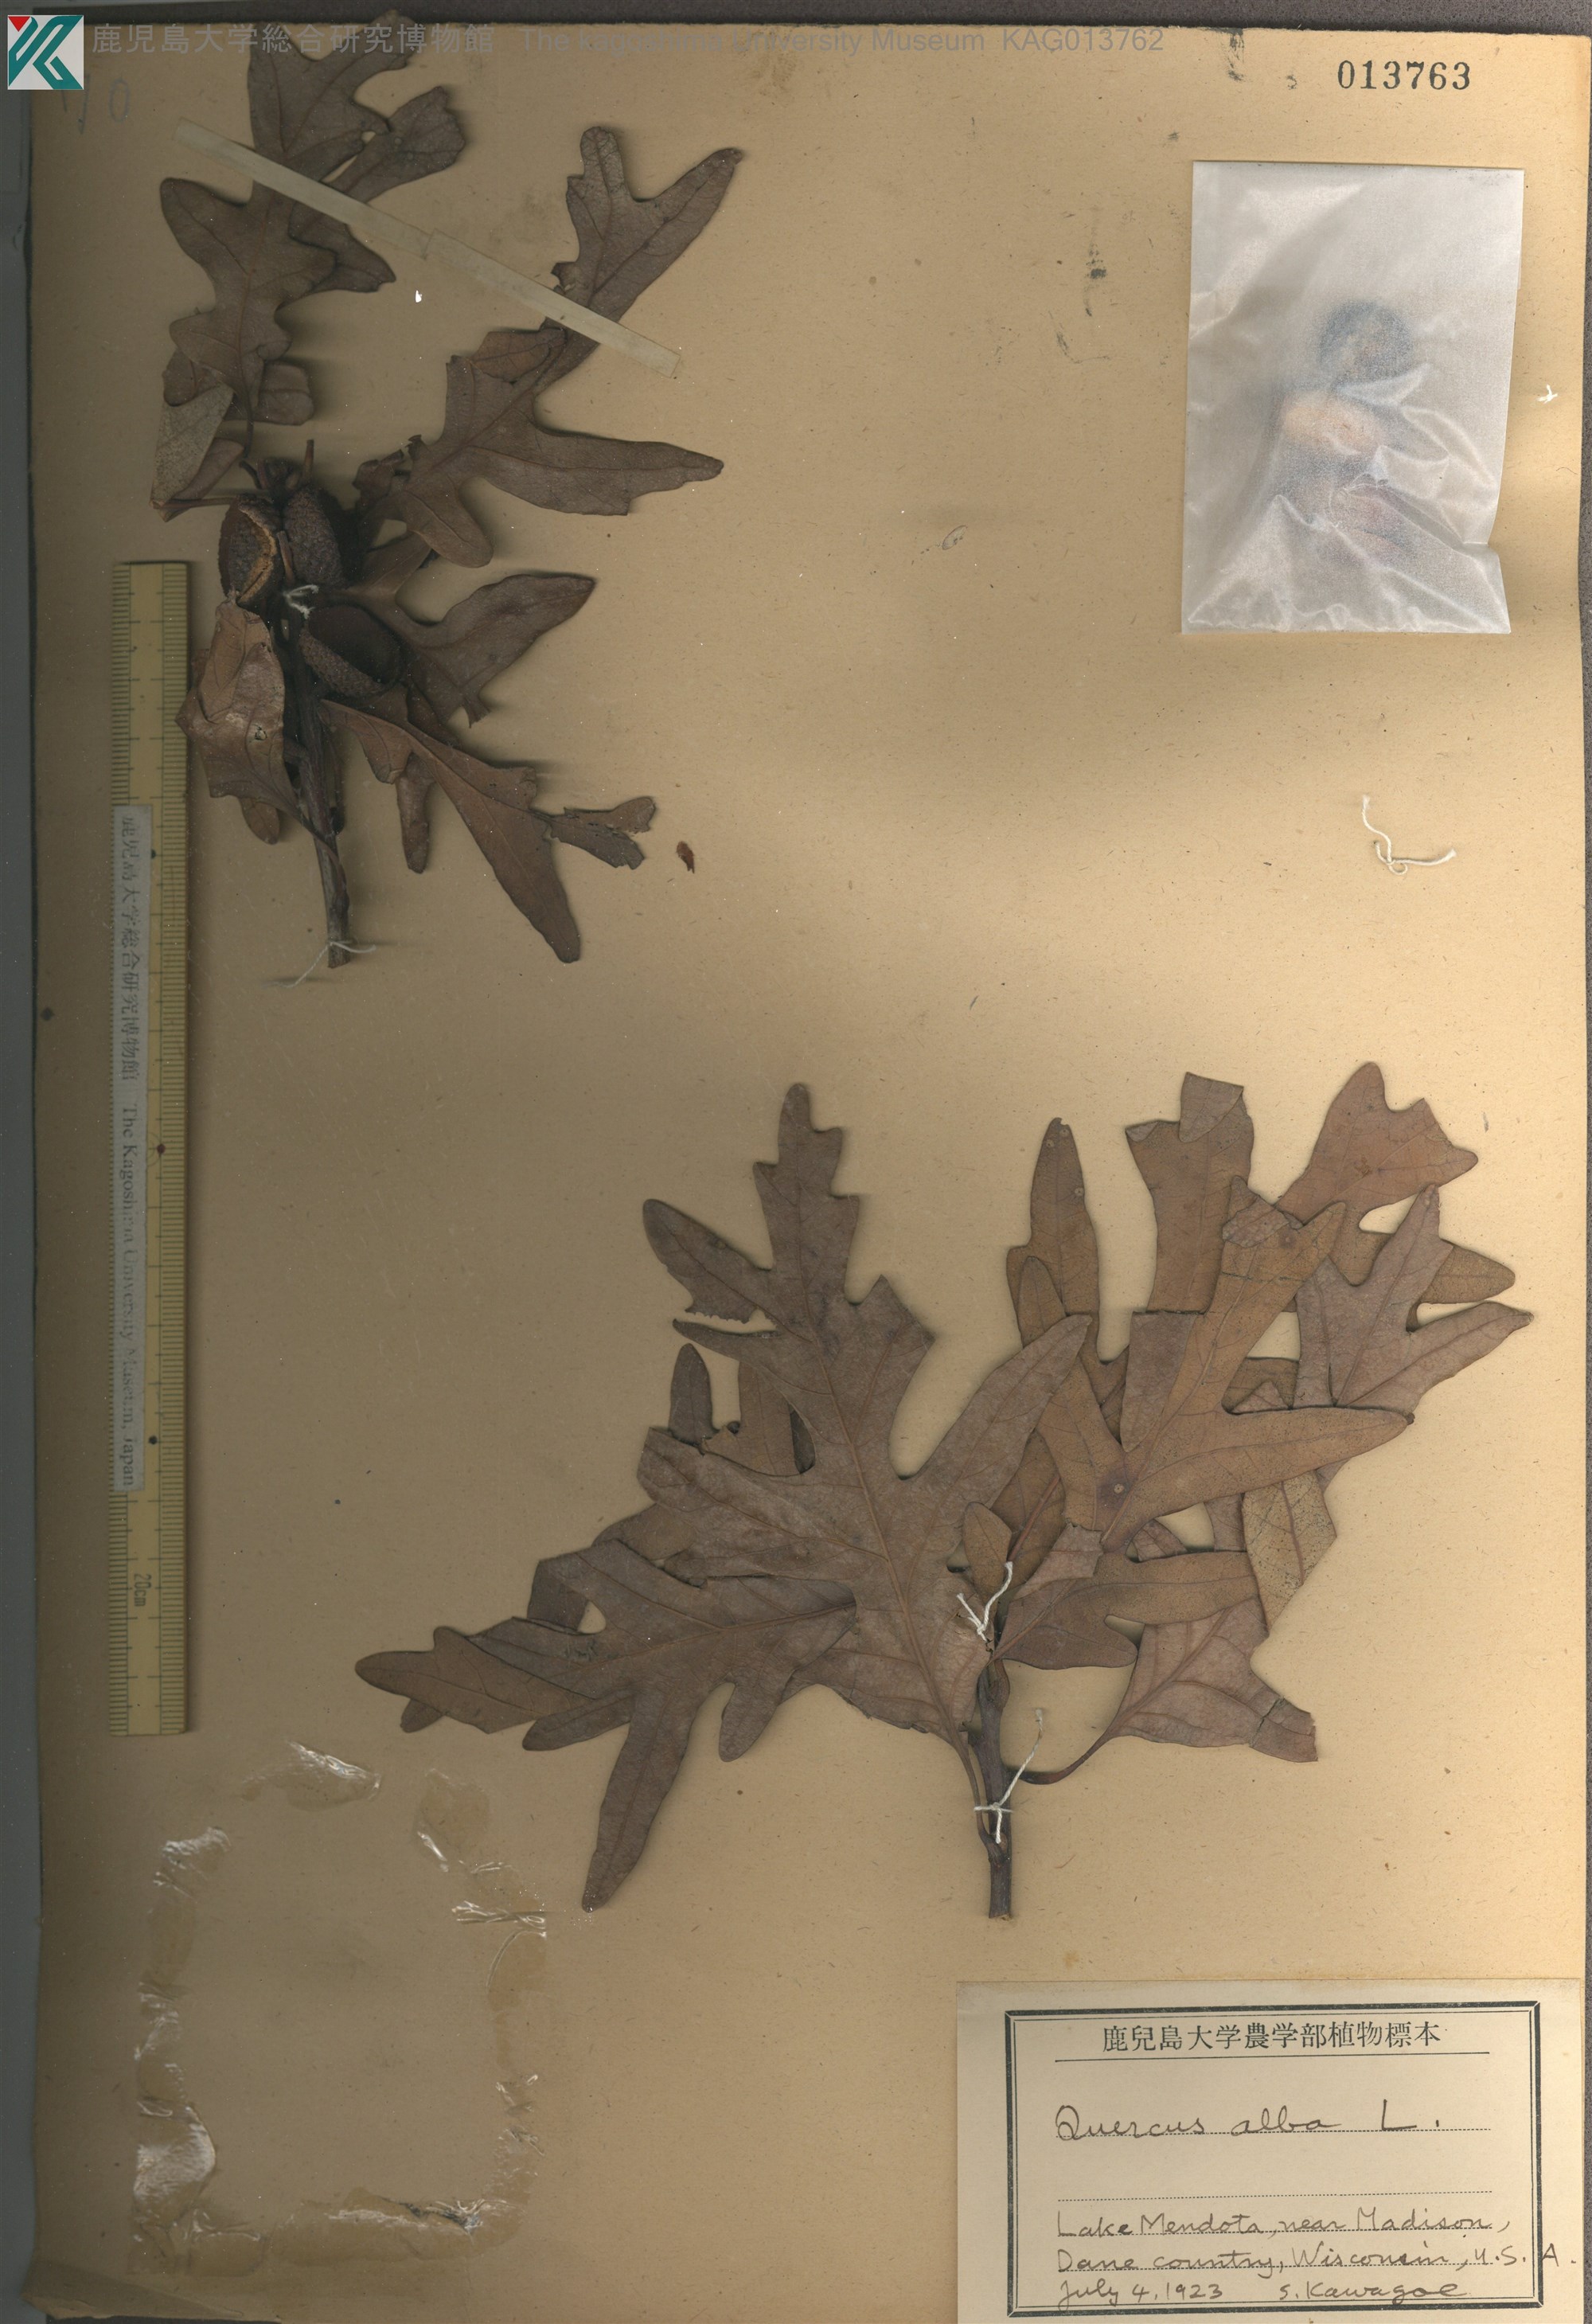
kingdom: Plantae
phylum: Tracheophyta
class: Magnoliopsida
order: Fagales
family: Fagaceae
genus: Quercus
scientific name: Quercus acutissima
